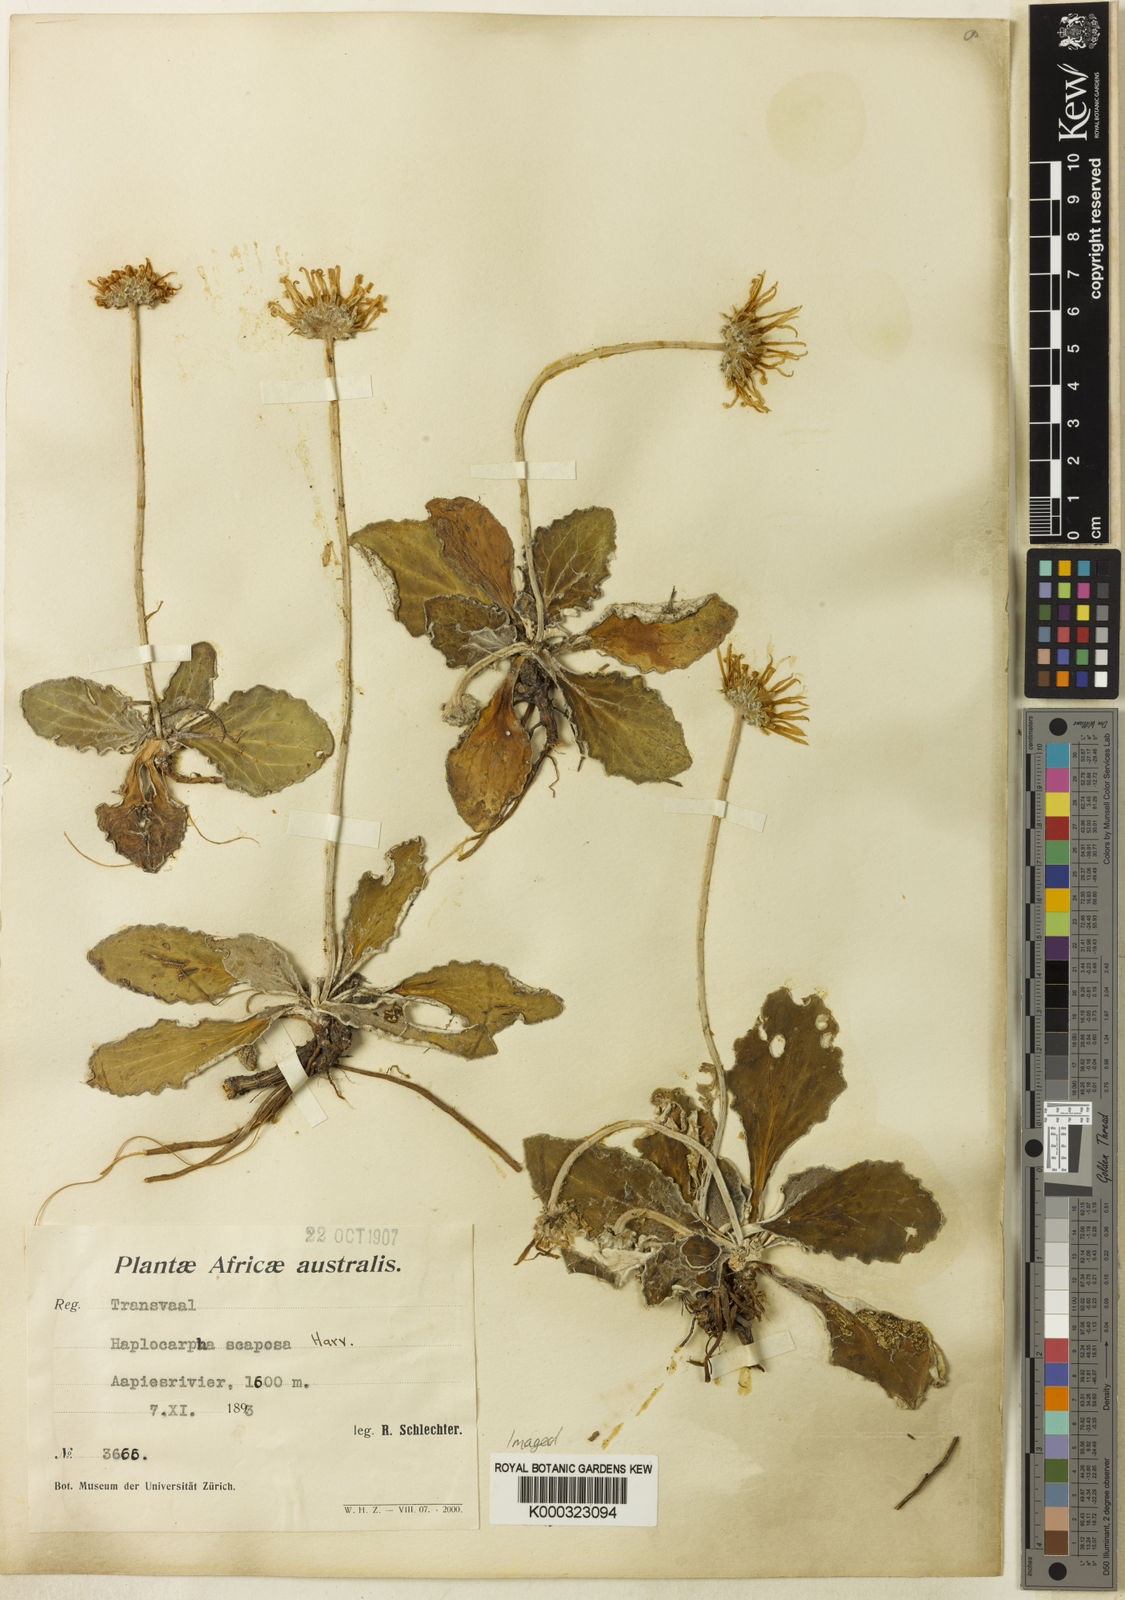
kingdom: Plantae
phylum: Tracheophyta
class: Magnoliopsida
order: Asterales
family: Asteraceae
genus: Haplocarpha
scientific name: Haplocarpha scaposa
